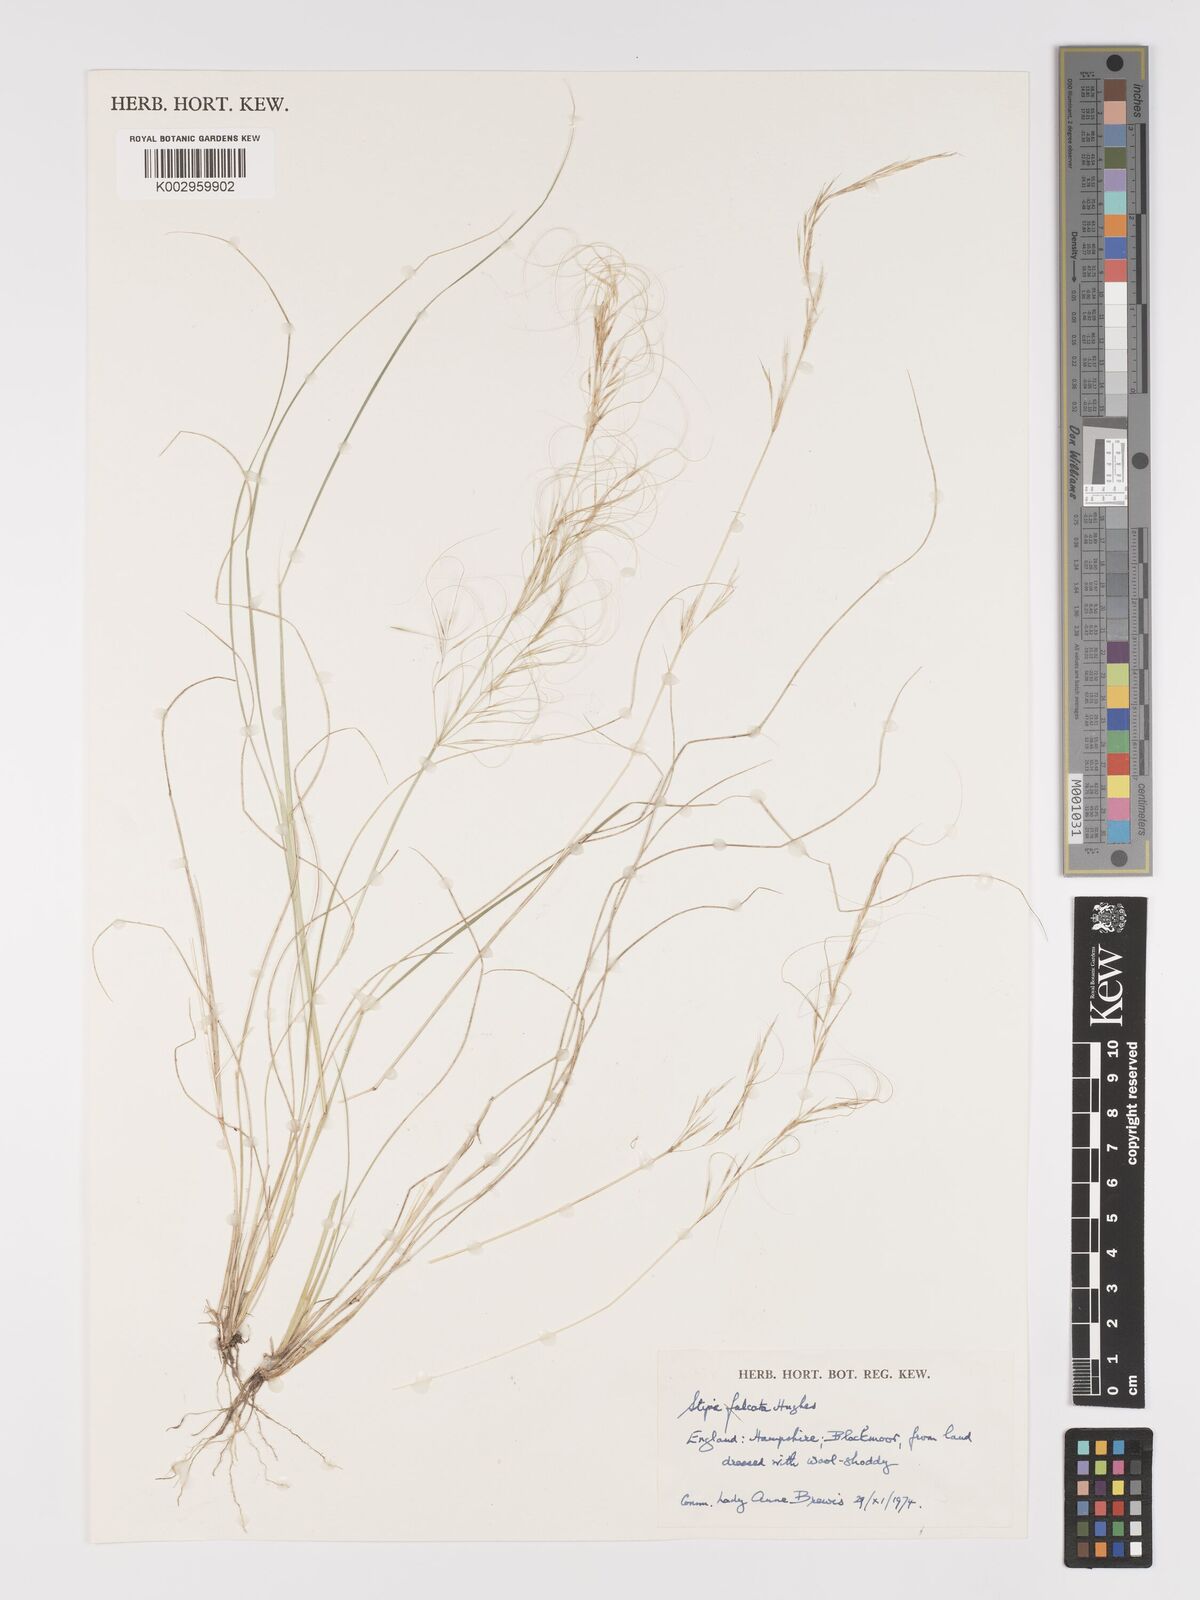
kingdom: Plantae
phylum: Tracheophyta
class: Liliopsida
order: Poales
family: Poaceae
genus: Austrostipa
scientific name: Austrostipa scabra
